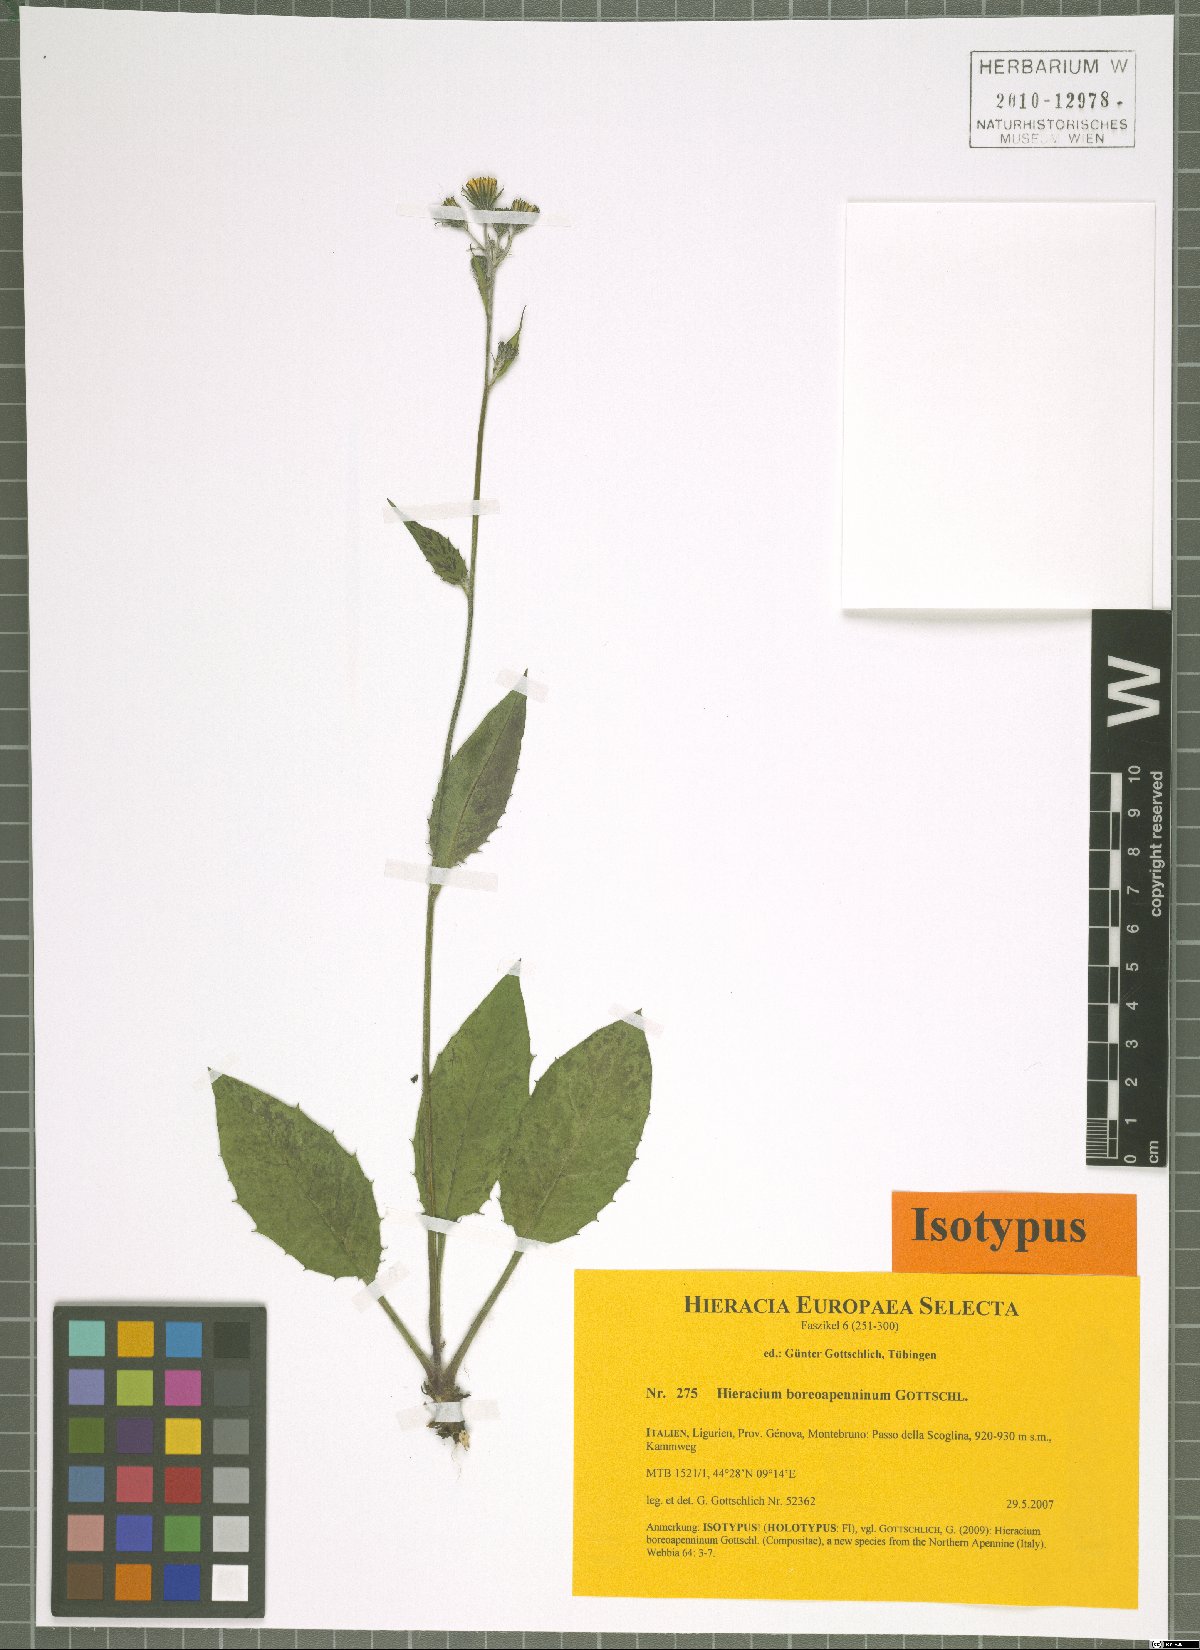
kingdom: Plantae
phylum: Tracheophyta
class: Magnoliopsida
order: Asterales
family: Asteraceae
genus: Hieracium
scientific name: Hieracium boreoapenninum
